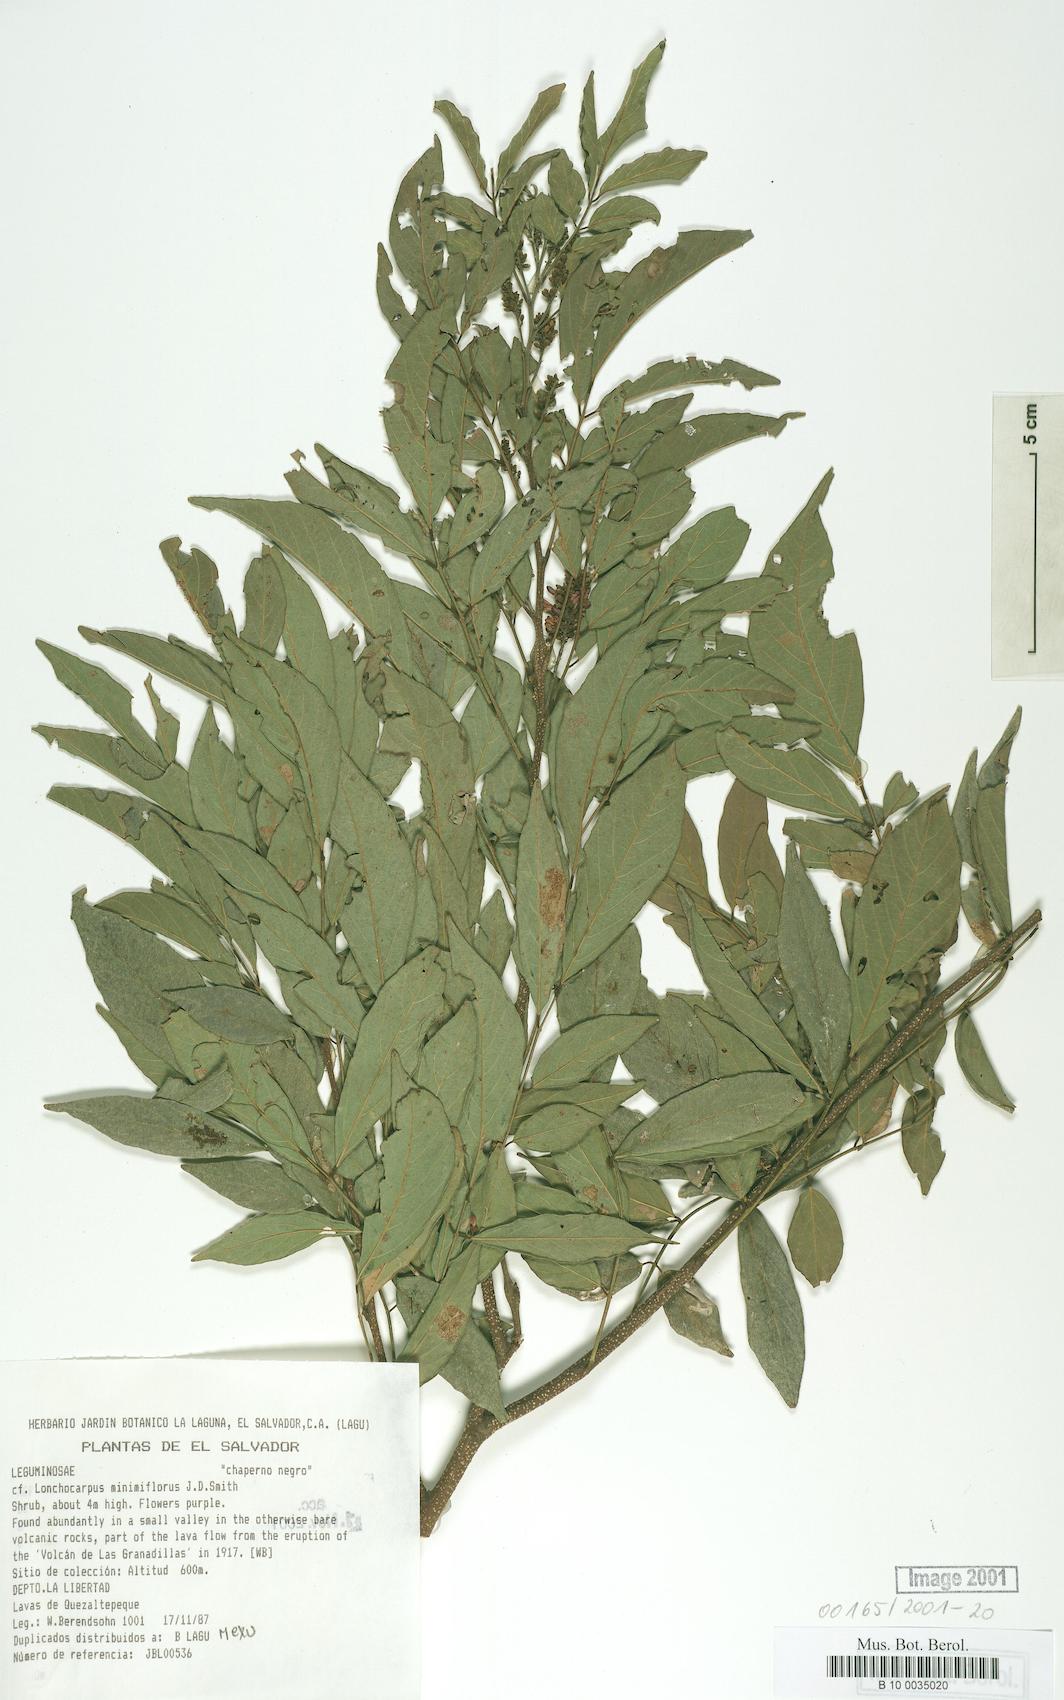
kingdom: Plantae
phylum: Tracheophyta
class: Magnoliopsida
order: Fabales
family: Fabaceae
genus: Lonchocarpus
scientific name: Lonchocarpus minimiflorus
